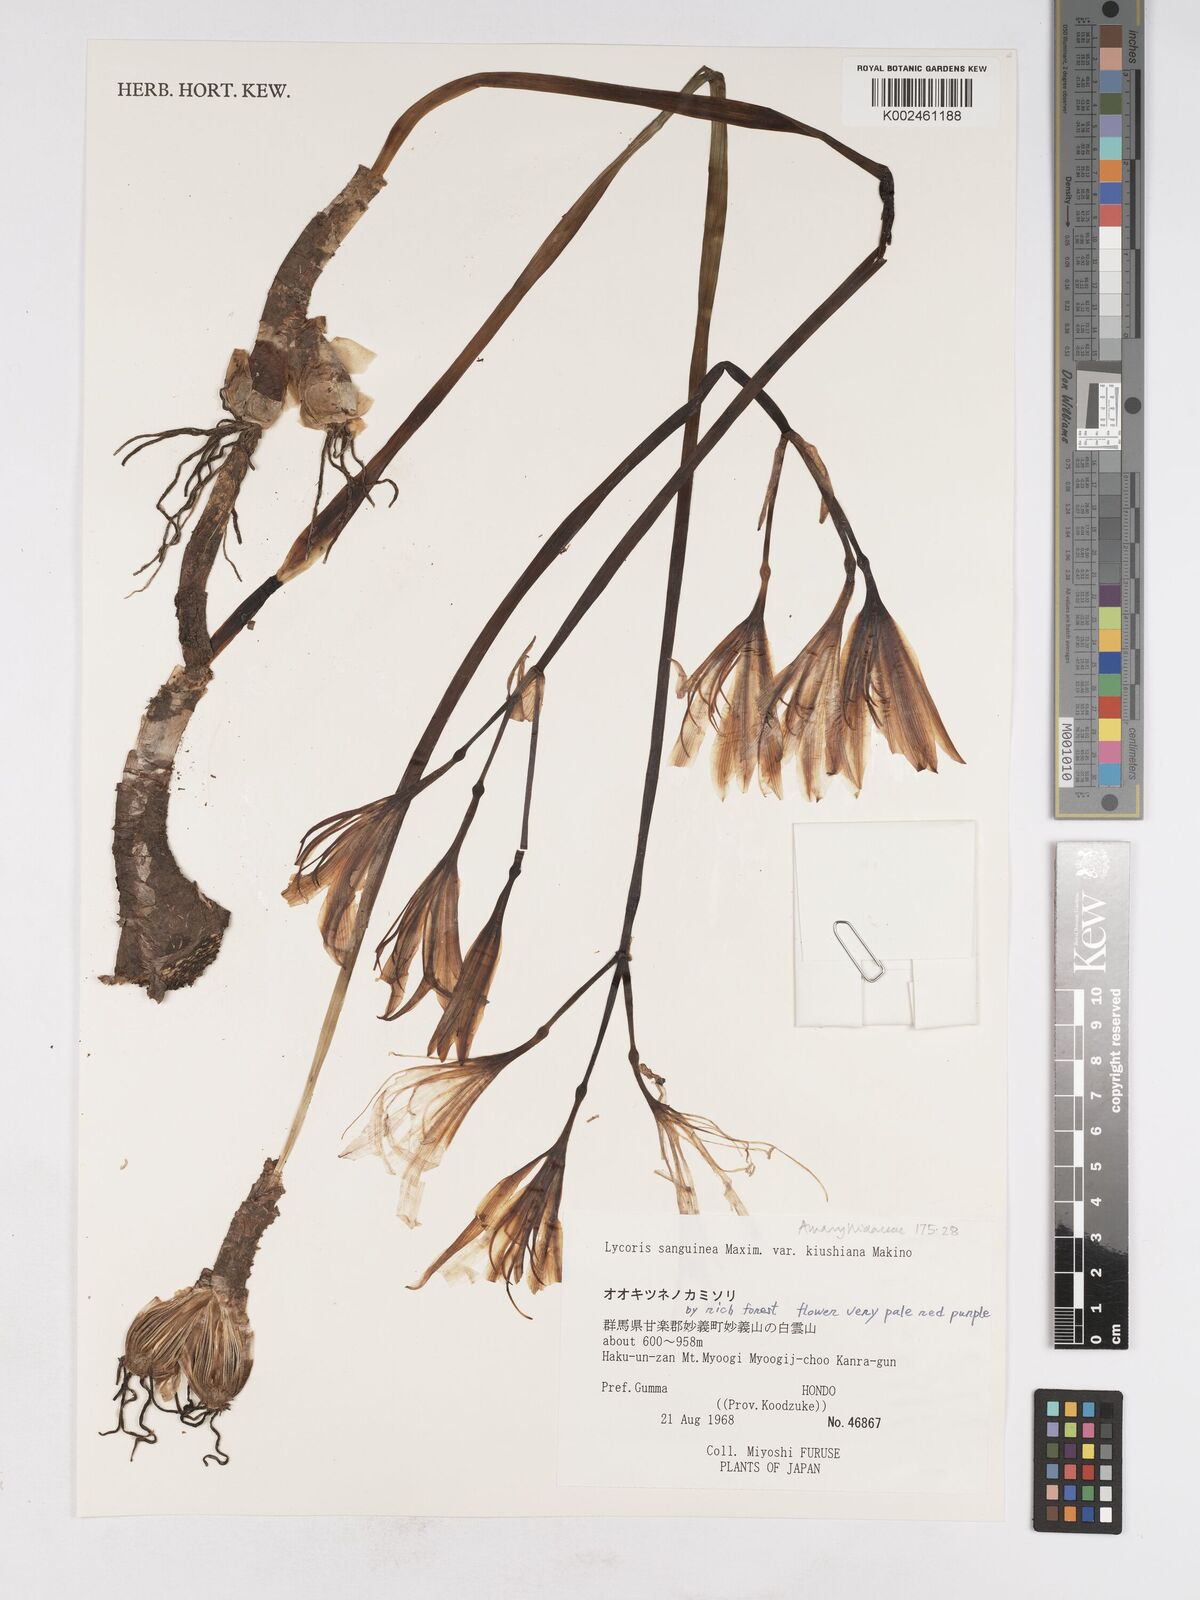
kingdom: Plantae
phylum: Tracheophyta
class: Liliopsida
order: Asparagales
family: Amaryllidaceae
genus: Lycoris
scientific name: Lycoris sanguinea
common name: Spider-lily
